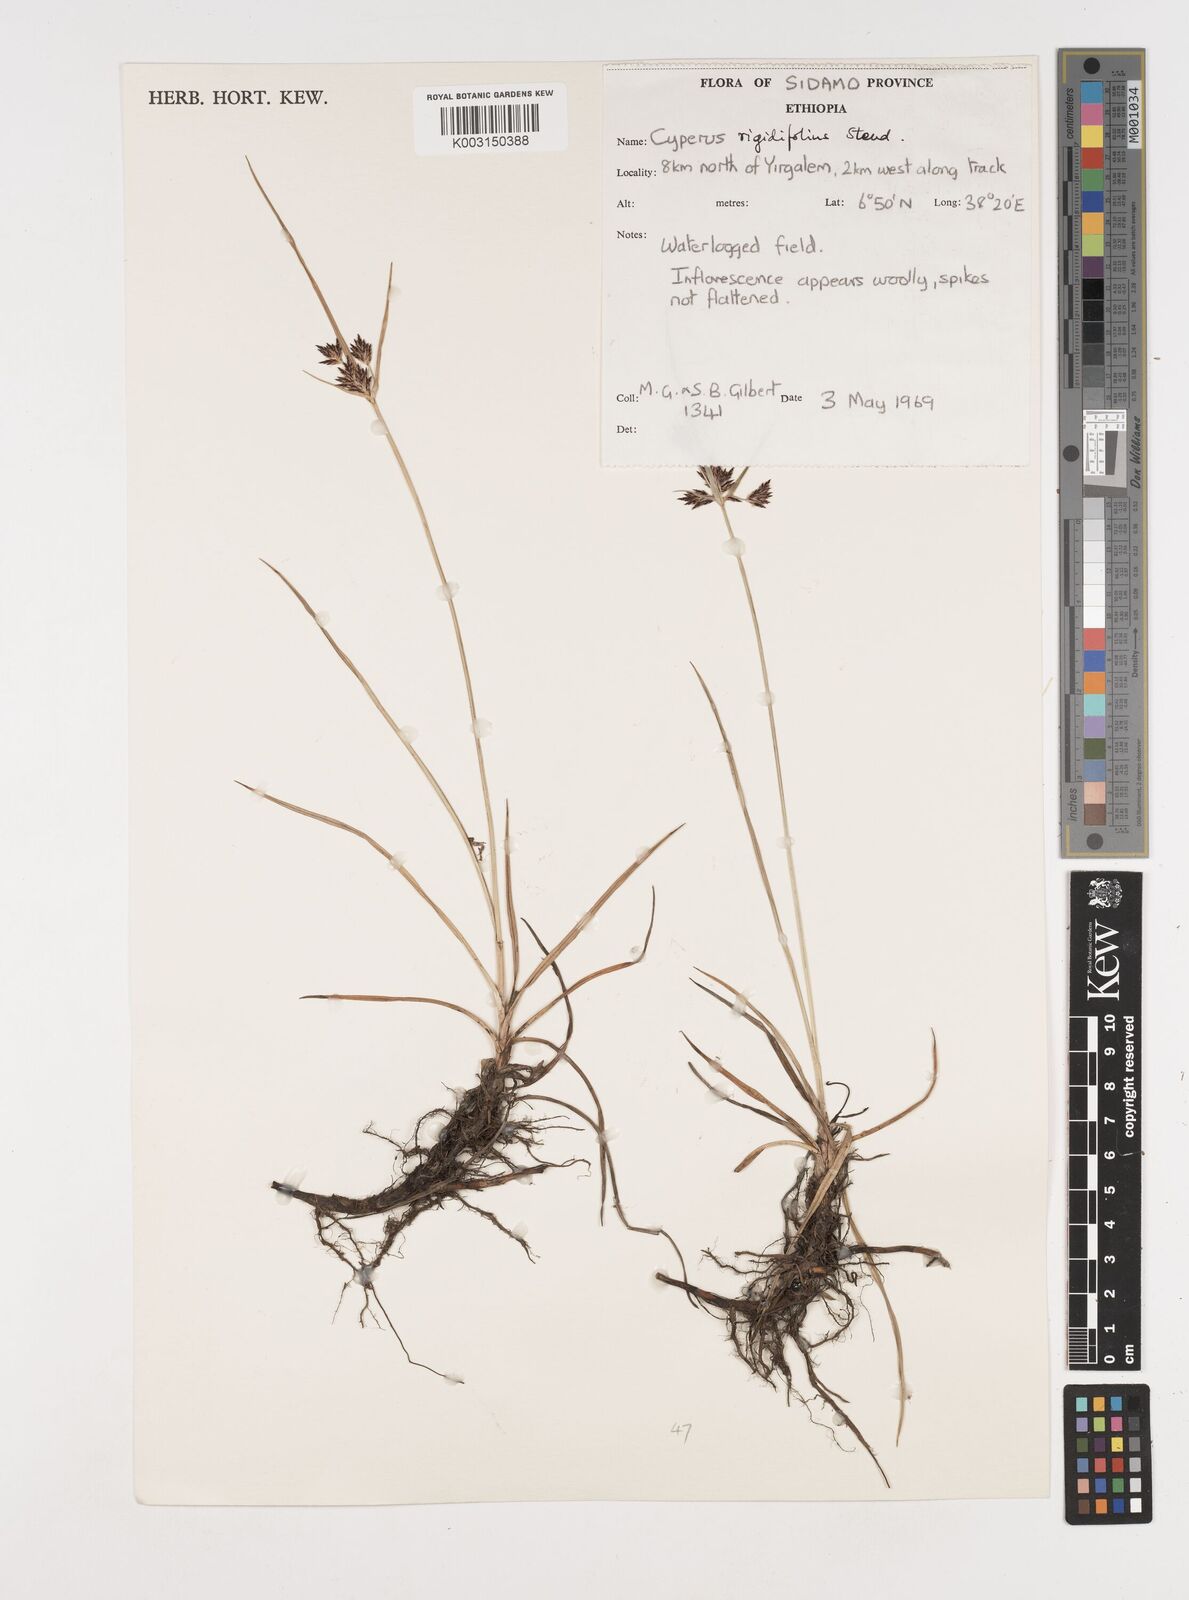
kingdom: Plantae
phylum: Tracheophyta
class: Liliopsida
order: Poales
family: Cyperaceae
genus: Cyperus
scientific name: Cyperus rigidifolius
